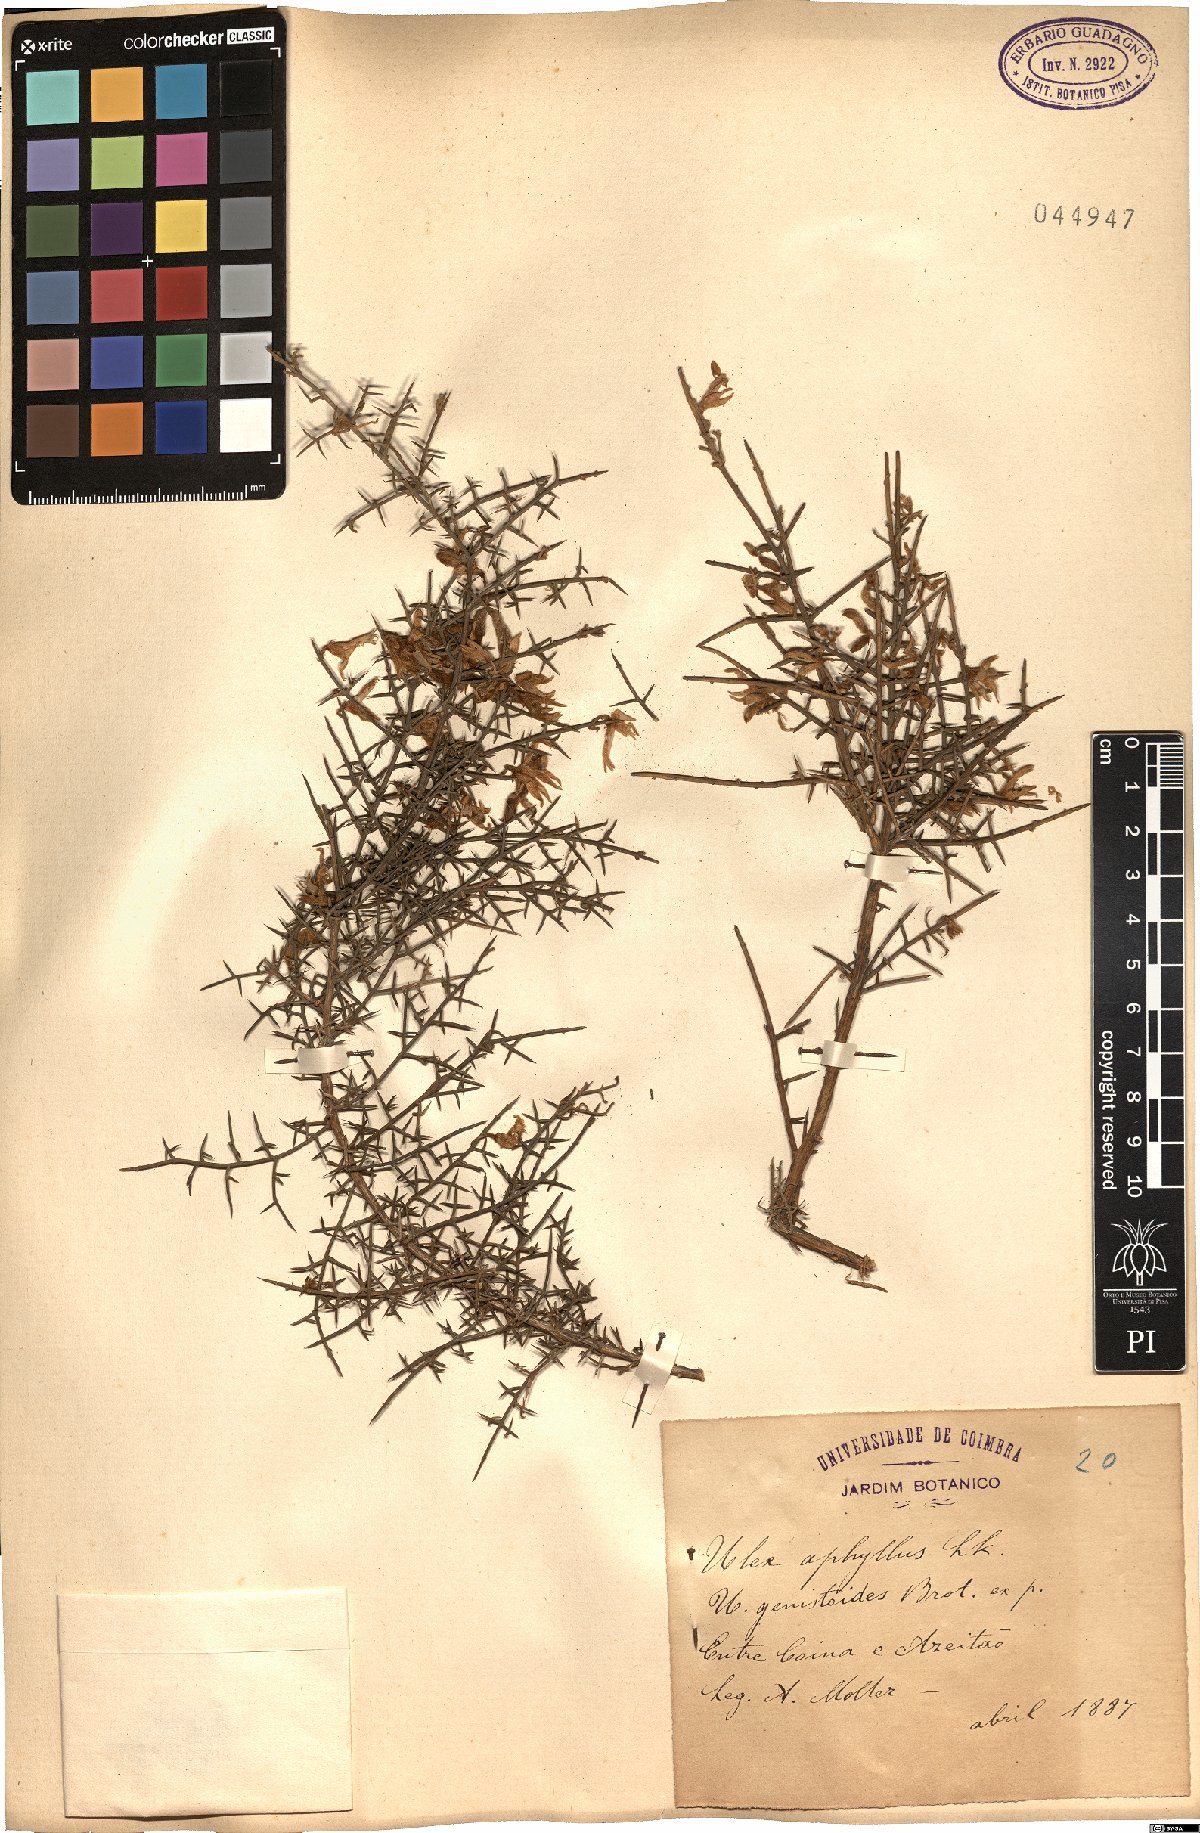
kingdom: Plantae
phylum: Tracheophyta
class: Magnoliopsida
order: Fabales
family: Fabaceae
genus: Stauracanthus
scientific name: Stauracanthus genistoides
